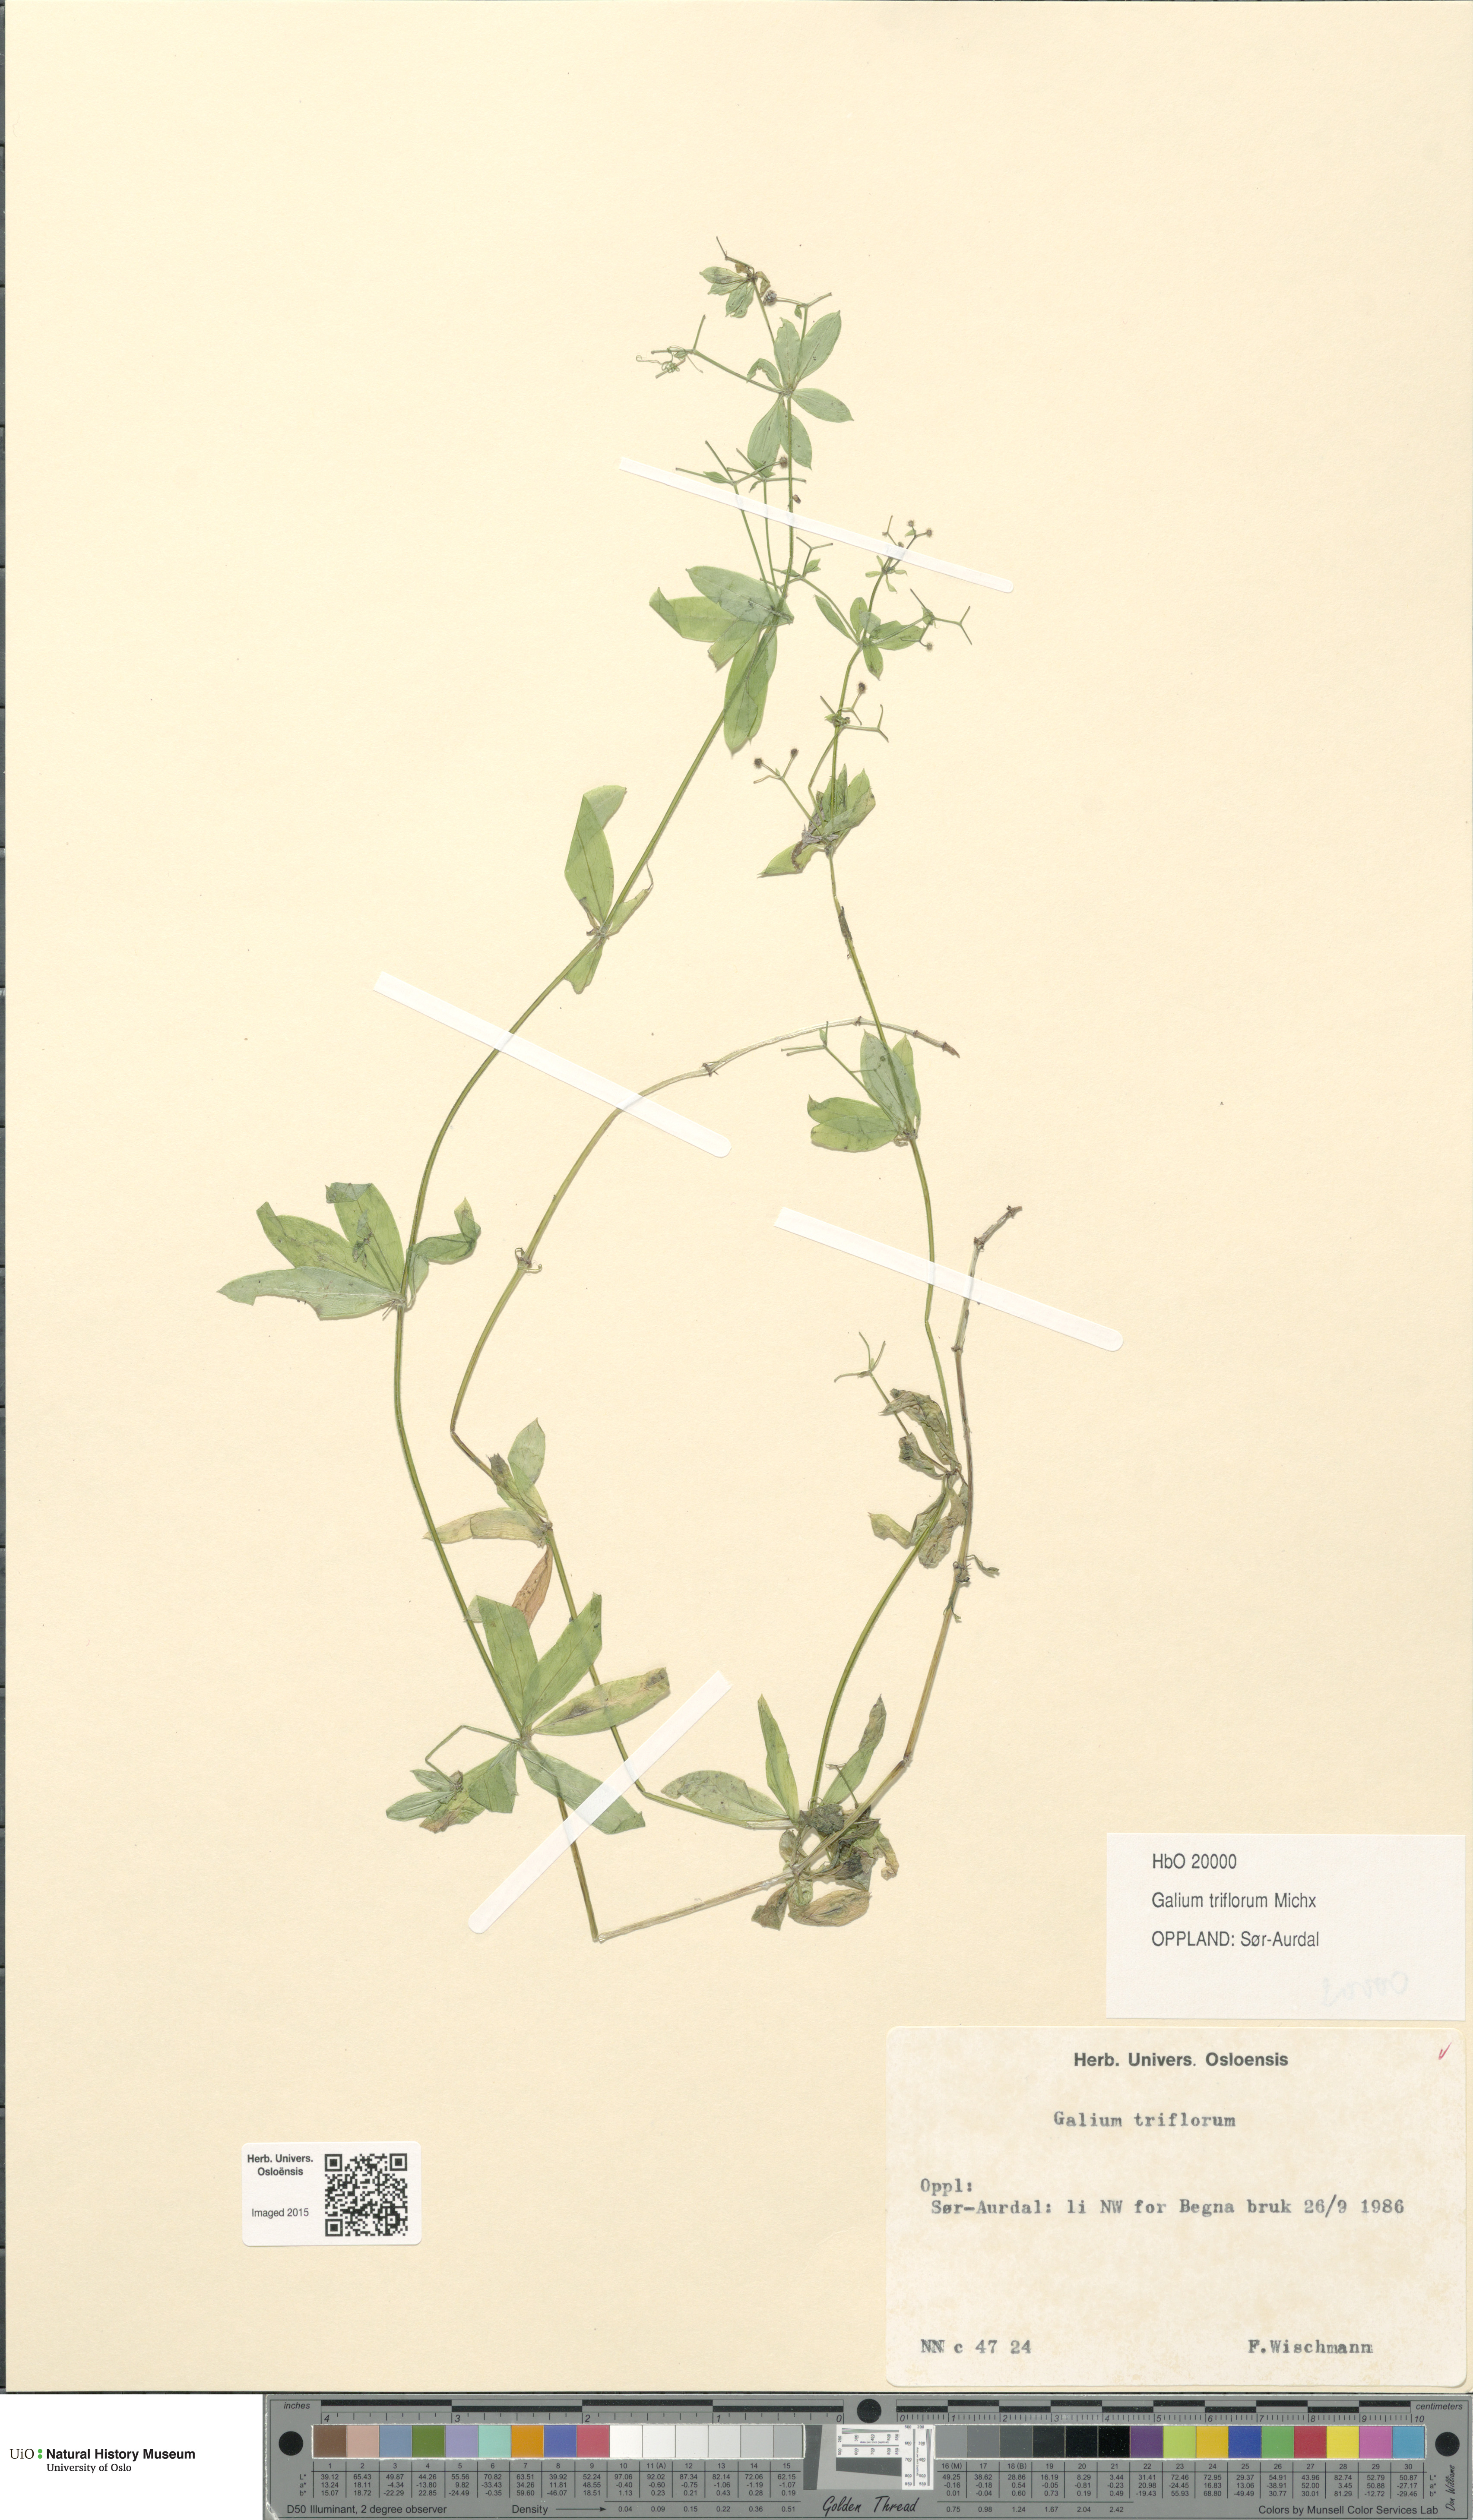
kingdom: Plantae
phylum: Tracheophyta
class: Magnoliopsida
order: Gentianales
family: Rubiaceae
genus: Galium
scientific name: Galium triflorum
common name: Fragrant bedstraw
